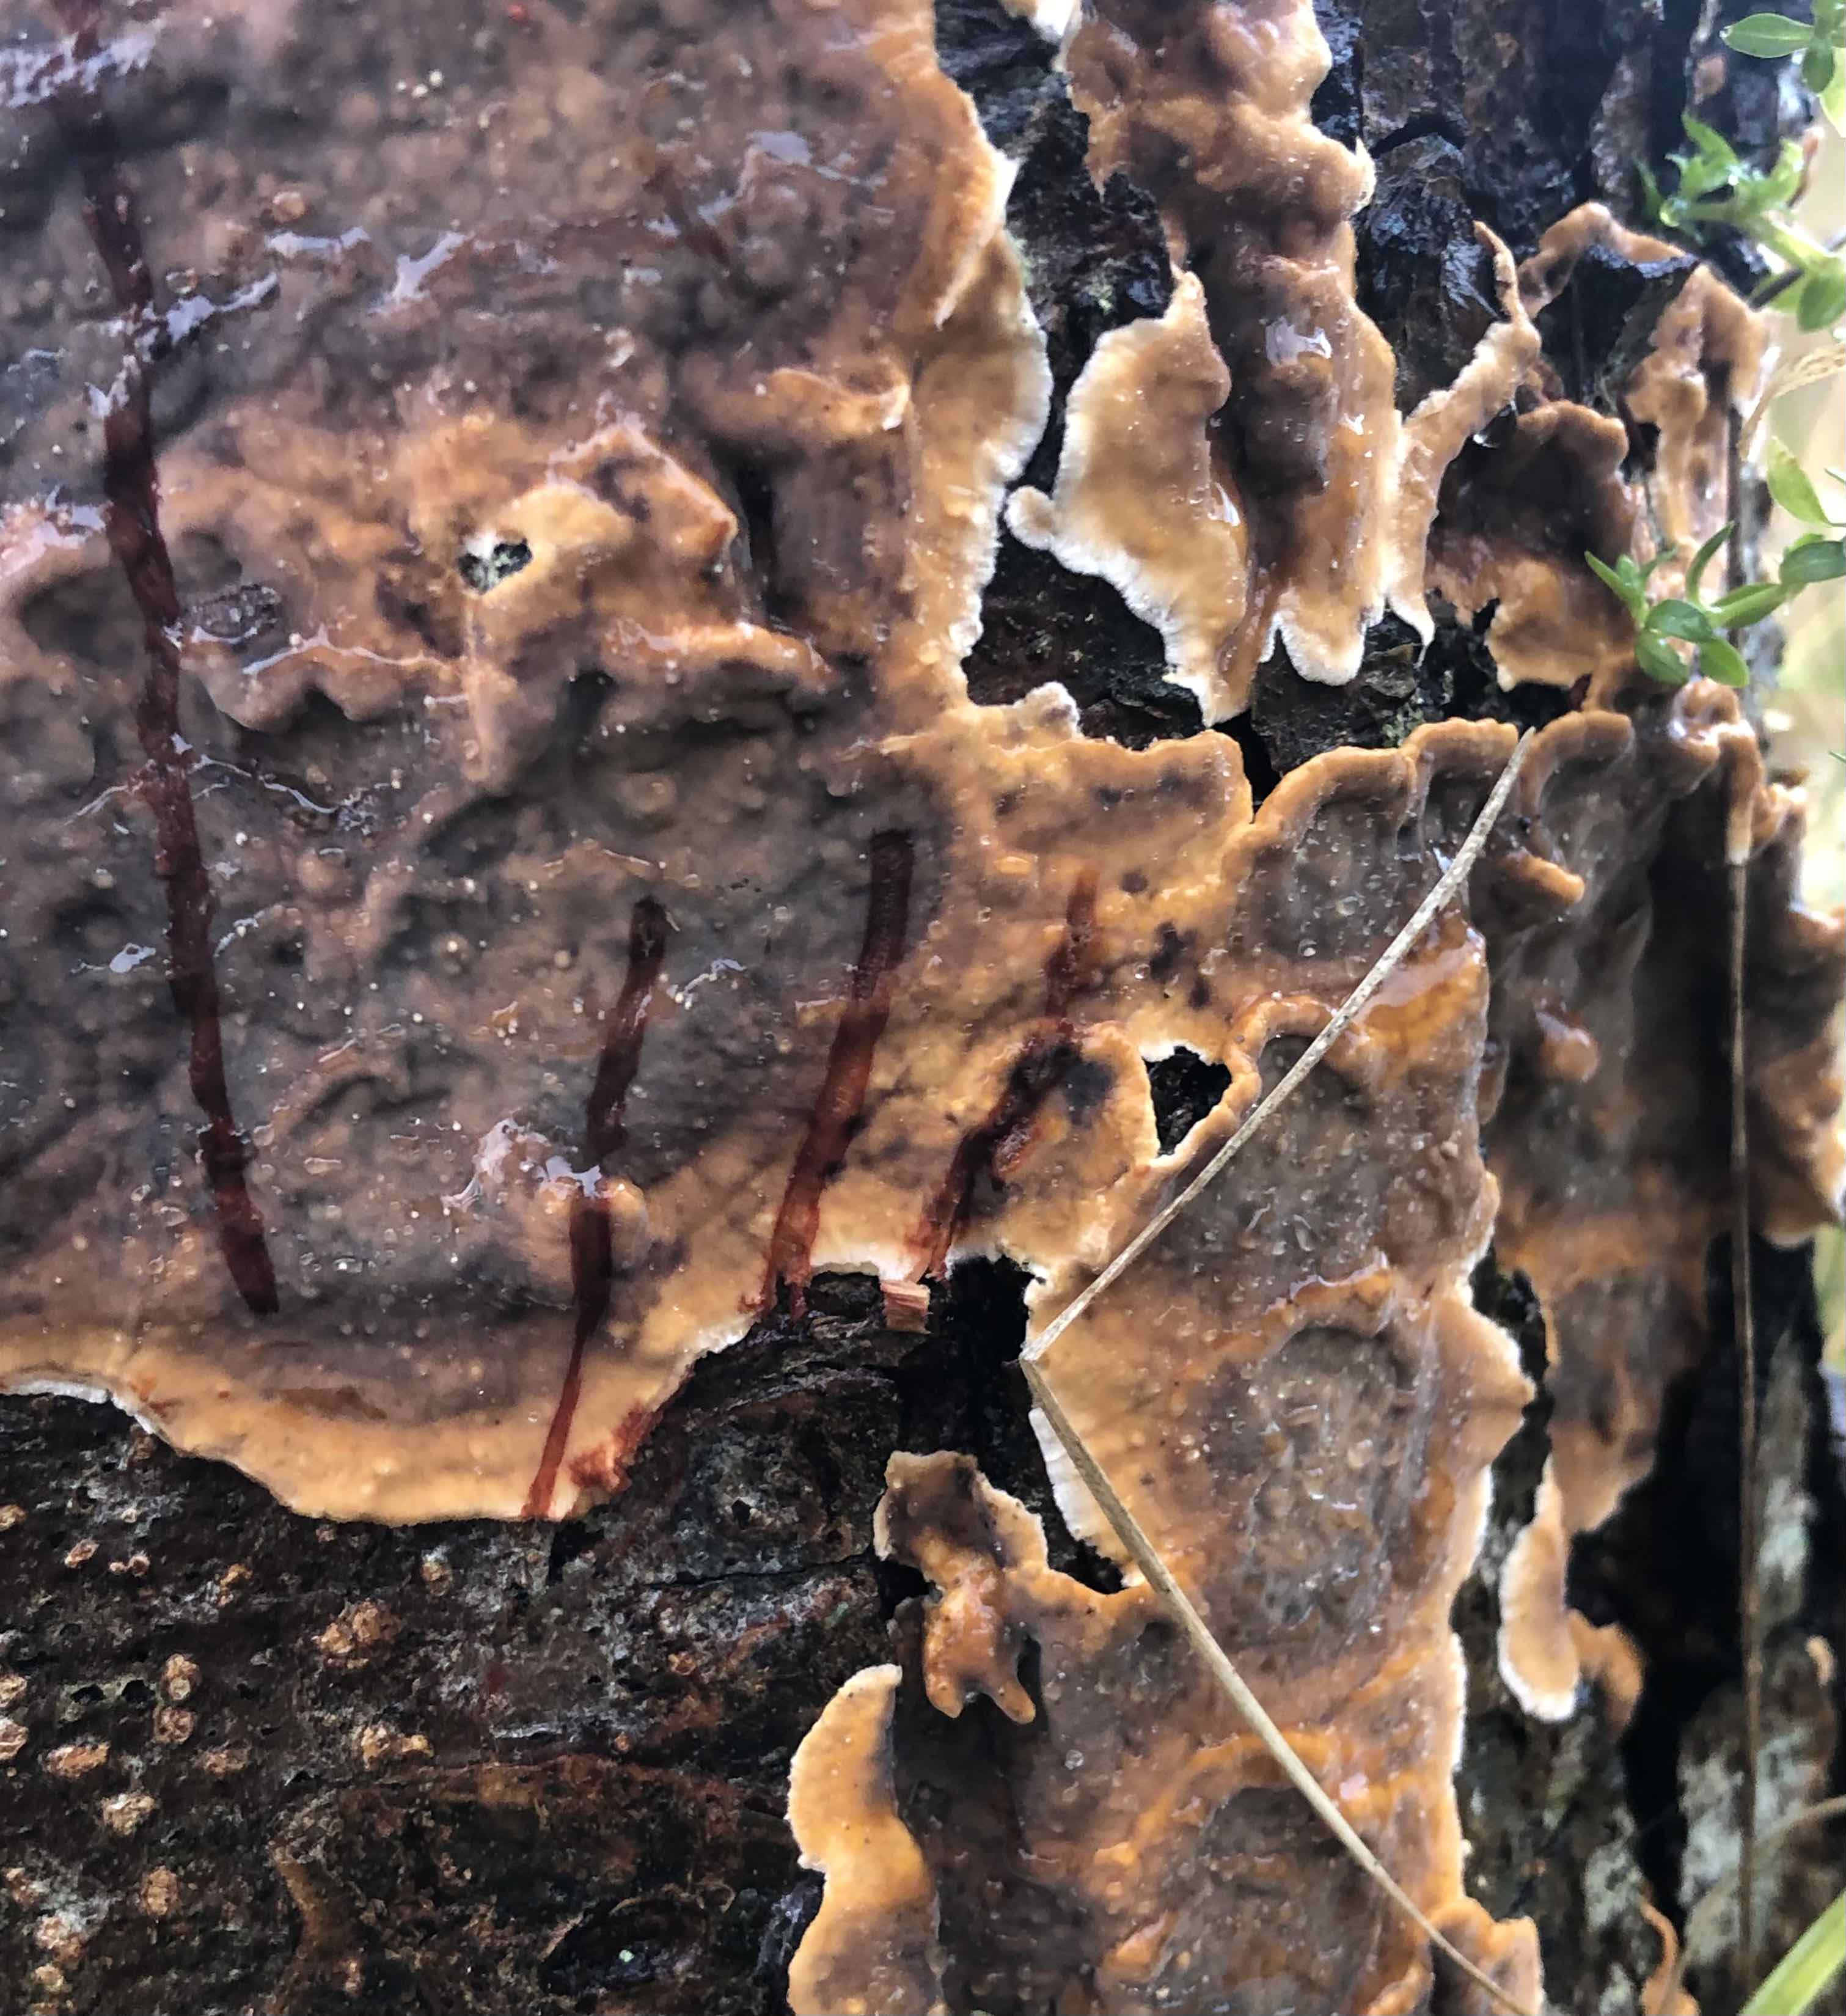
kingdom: Fungi
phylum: Basidiomycota
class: Agaricomycetes
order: Russulales
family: Stereaceae
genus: Stereum
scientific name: Stereum rugosum
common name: rynket lædersvamp
